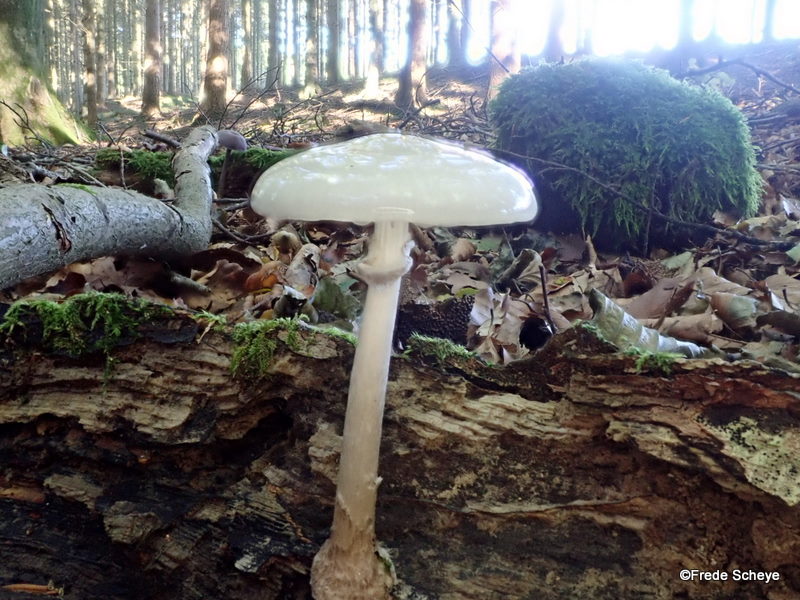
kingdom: Fungi
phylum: Basidiomycota
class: Agaricomycetes
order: Agaricales
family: Physalacriaceae
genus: Mucidula
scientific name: Mucidula mucida
